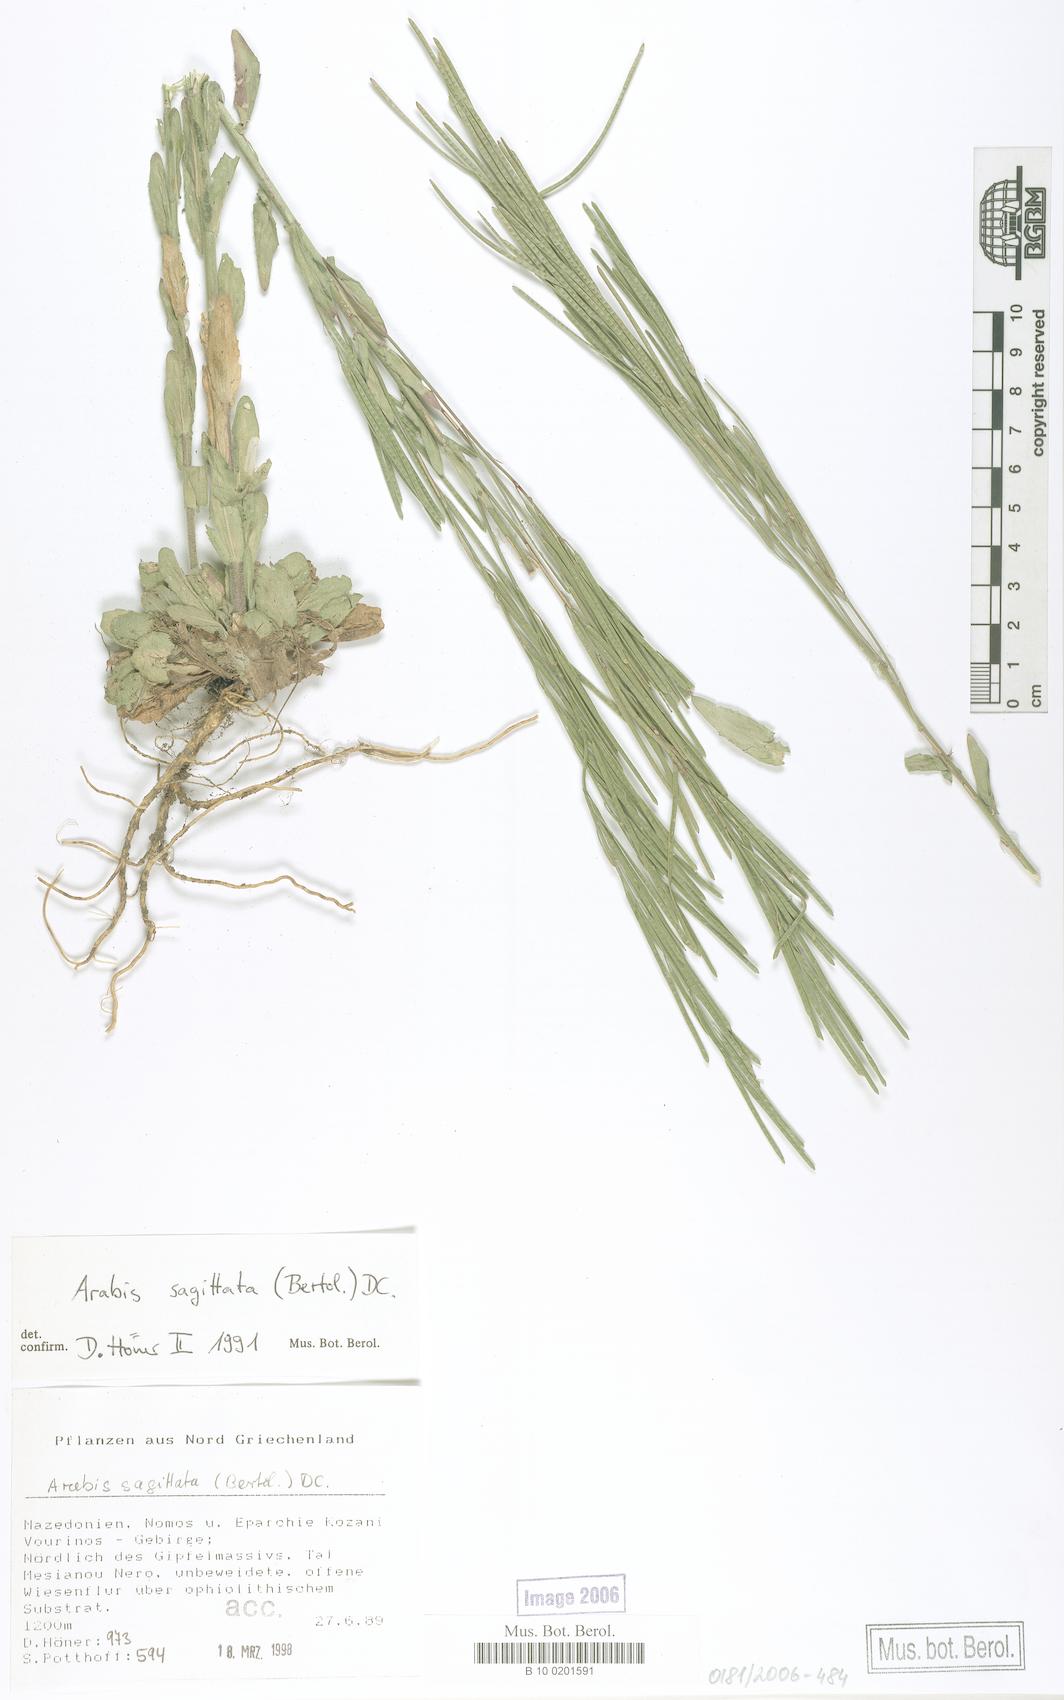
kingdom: Plantae
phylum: Tracheophyta
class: Magnoliopsida
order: Brassicales
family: Brassicaceae
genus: Arabis
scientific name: Arabis sagittata
